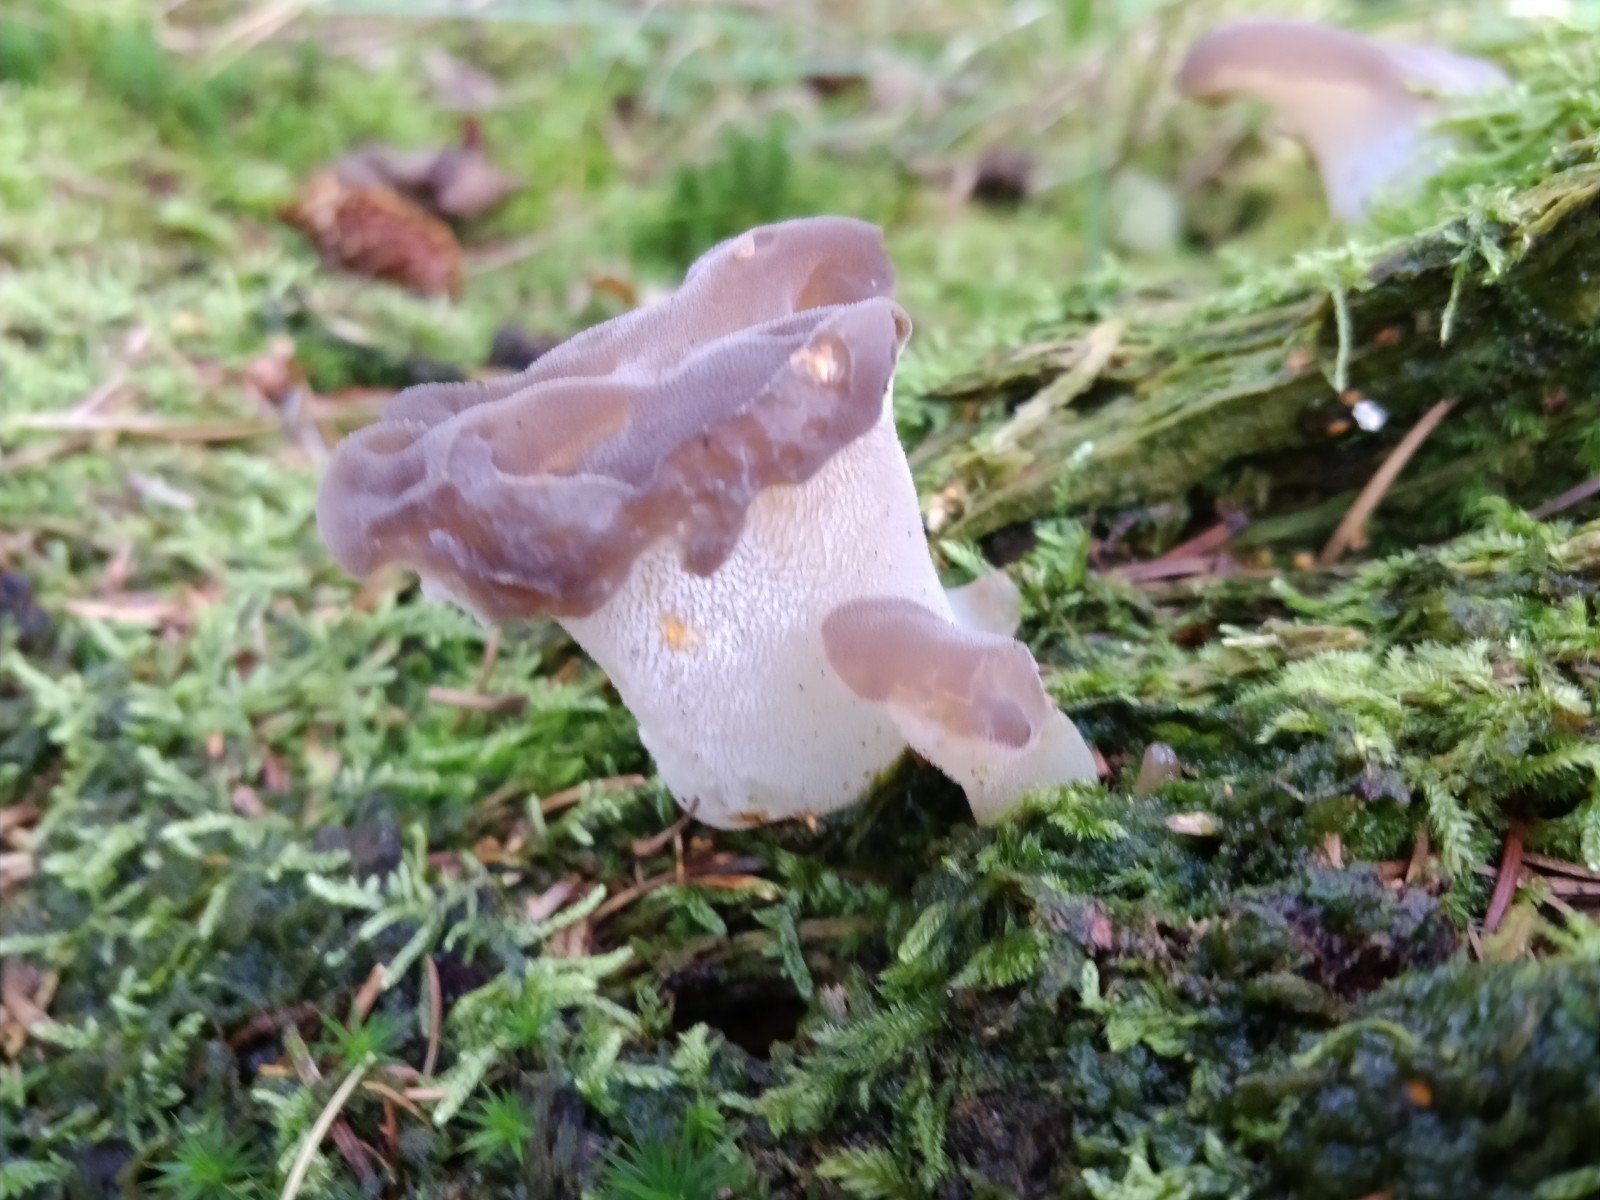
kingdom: Fungi
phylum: Basidiomycota
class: Agaricomycetes
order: Auriculariales
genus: Pseudohydnum
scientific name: Pseudohydnum gelatinosum
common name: bævretand
